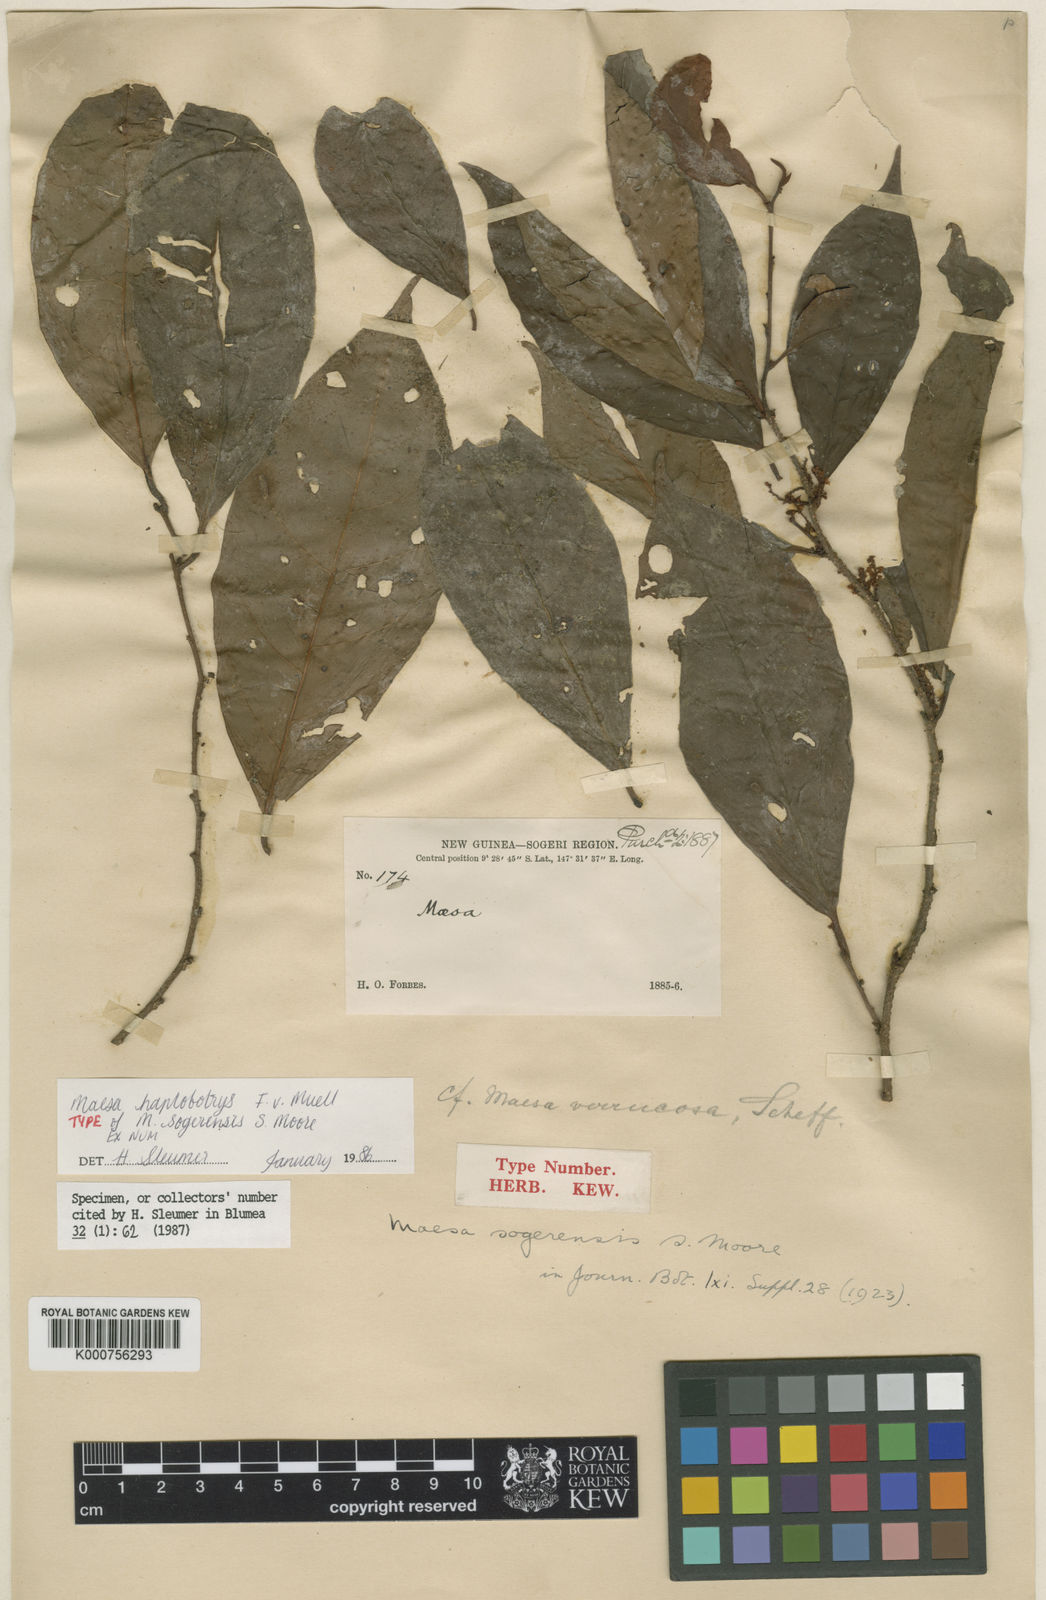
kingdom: Plantae
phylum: Tracheophyta
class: Magnoliopsida
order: Ericales
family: Primulaceae
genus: Maesa
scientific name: Maesa haplobotrys
